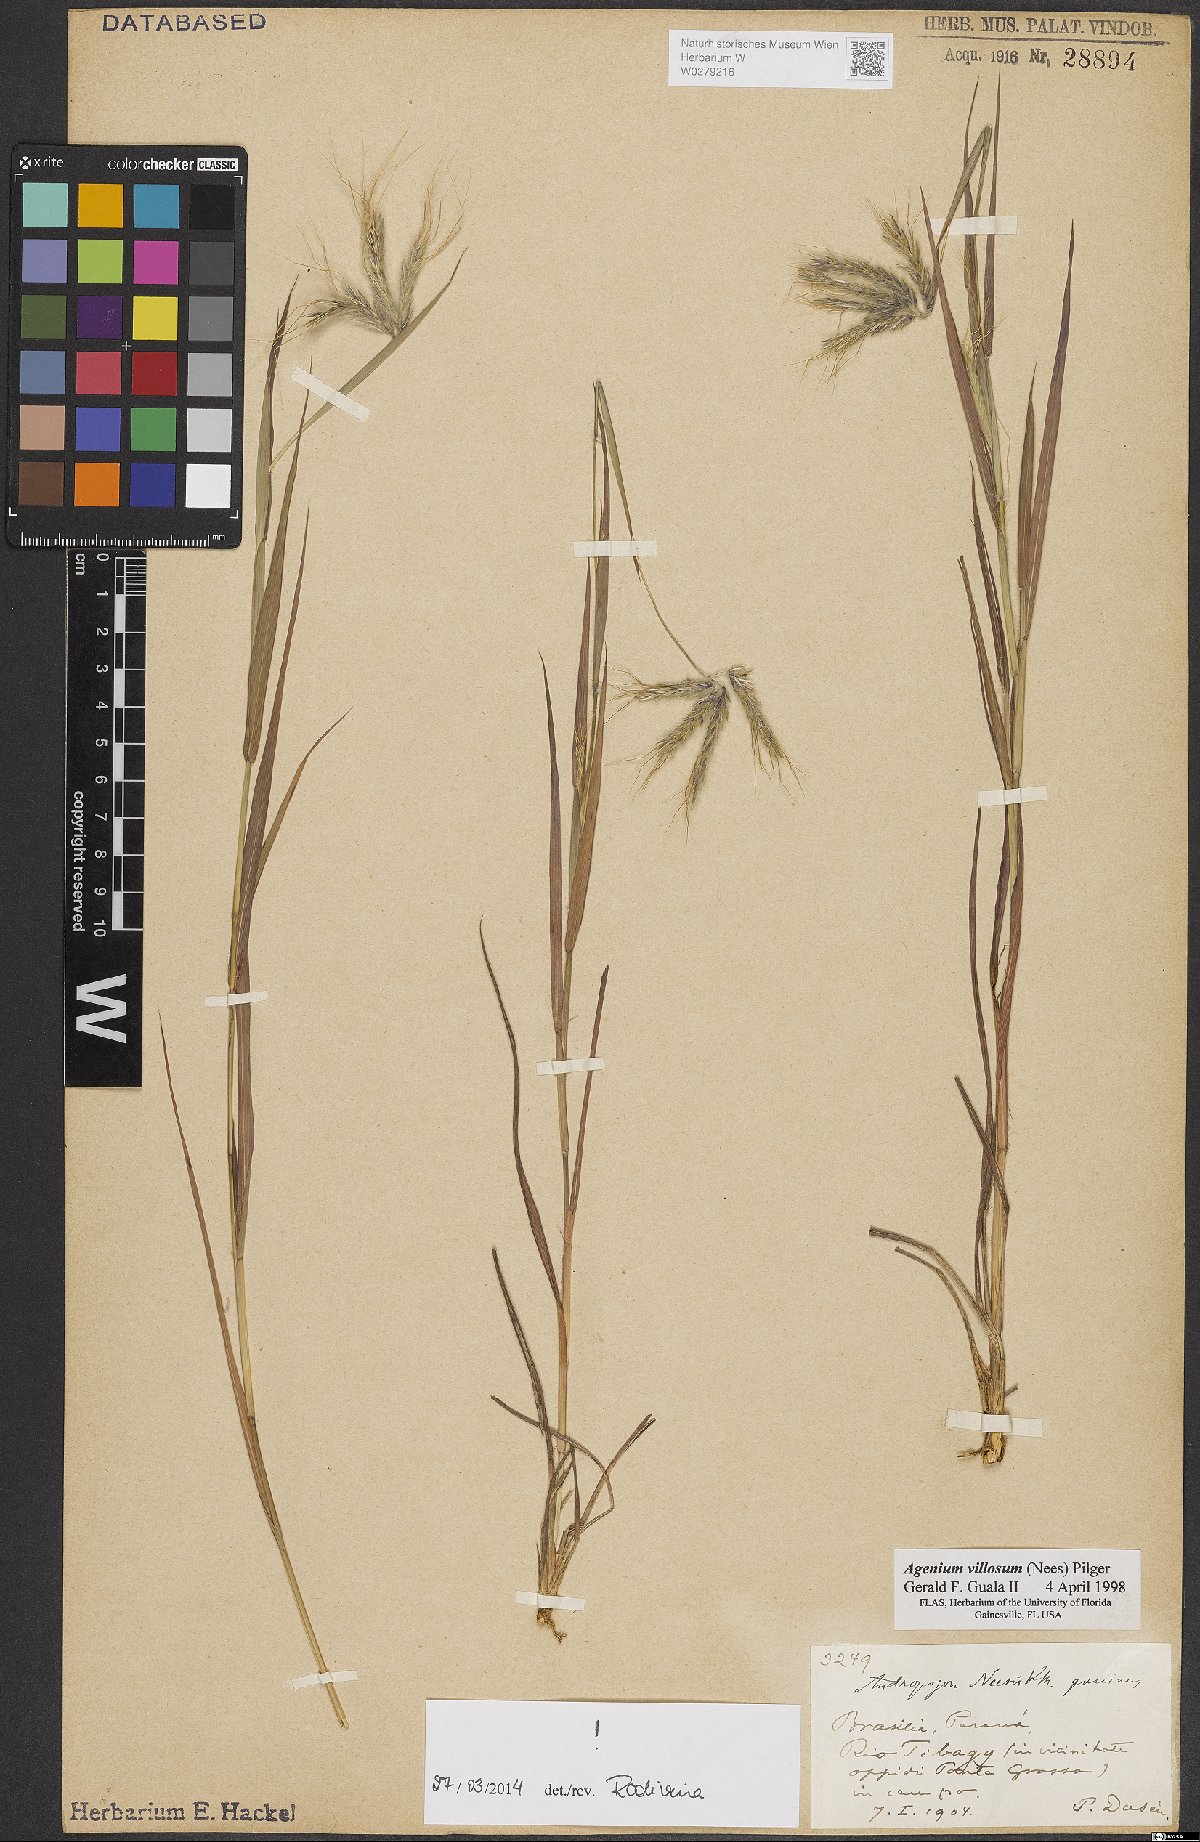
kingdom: Plantae
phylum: Tracheophyta
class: Liliopsida
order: Poales
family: Poaceae
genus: Agenium
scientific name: Agenium villosum
